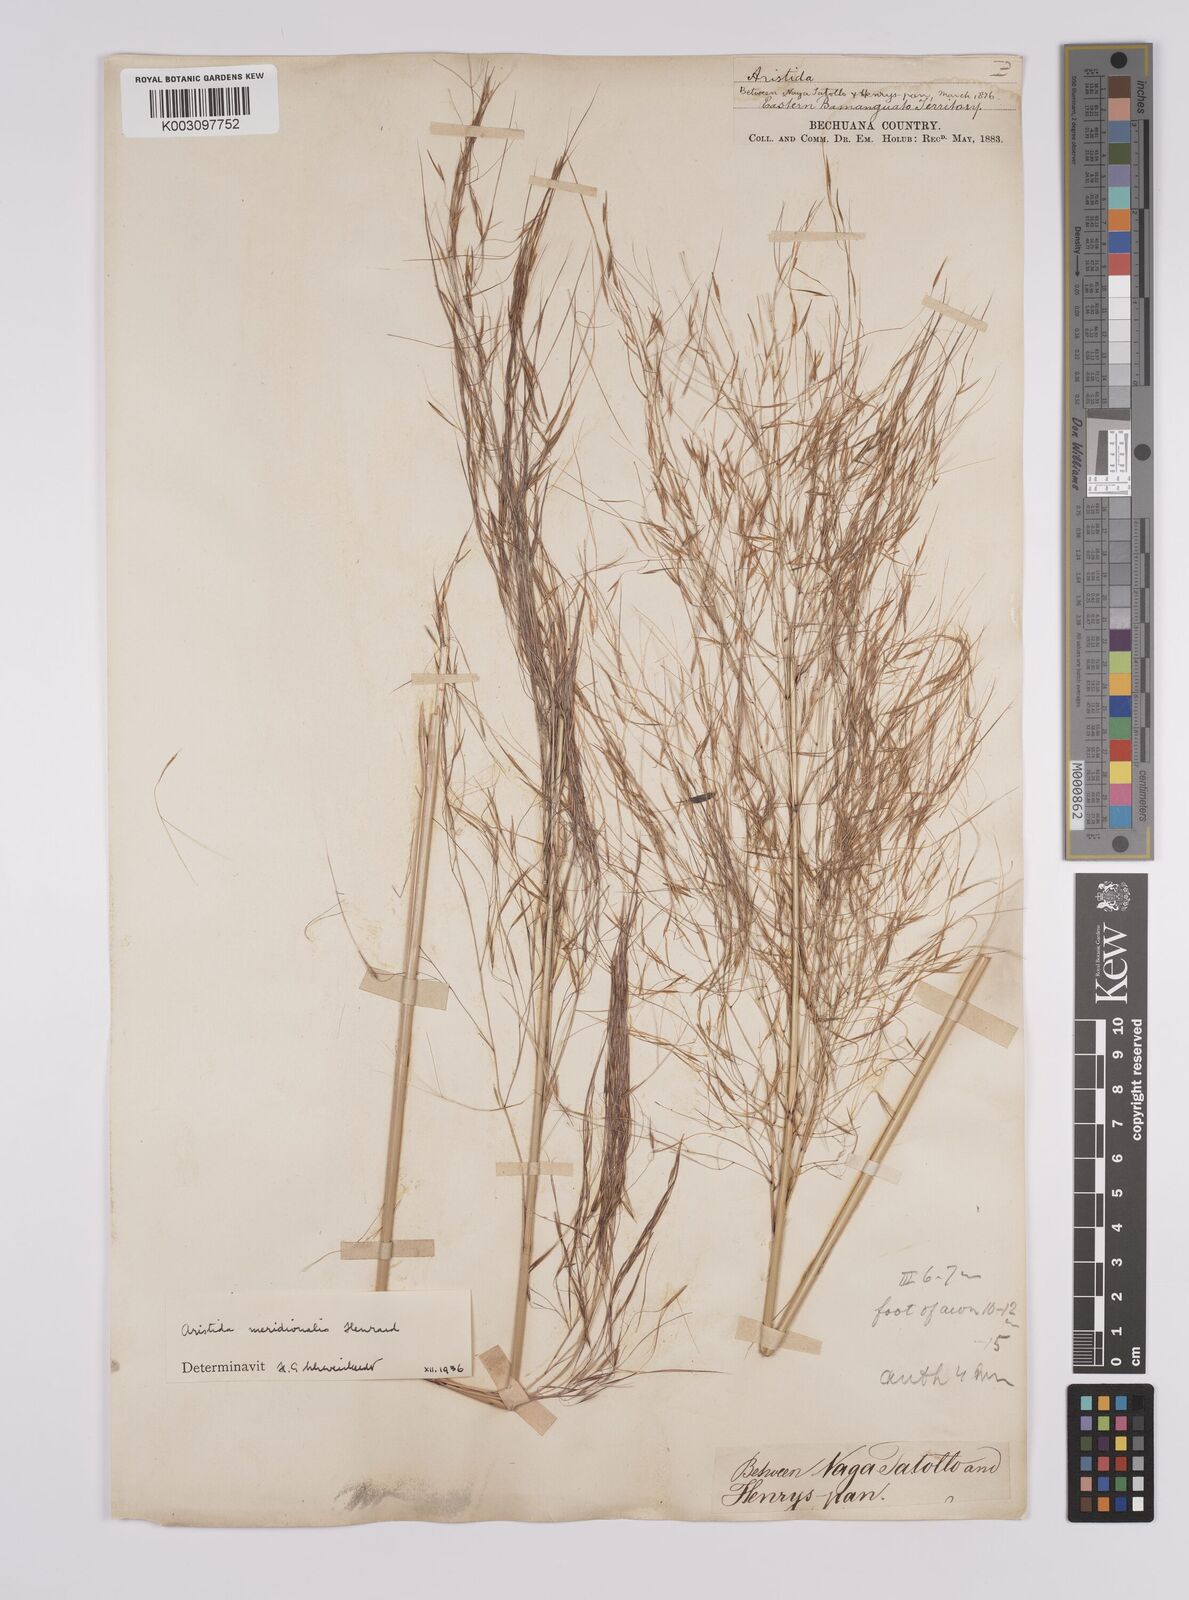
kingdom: Plantae
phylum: Tracheophyta
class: Liliopsida
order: Poales
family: Poaceae
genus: Aristida
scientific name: Aristida meridionalis
